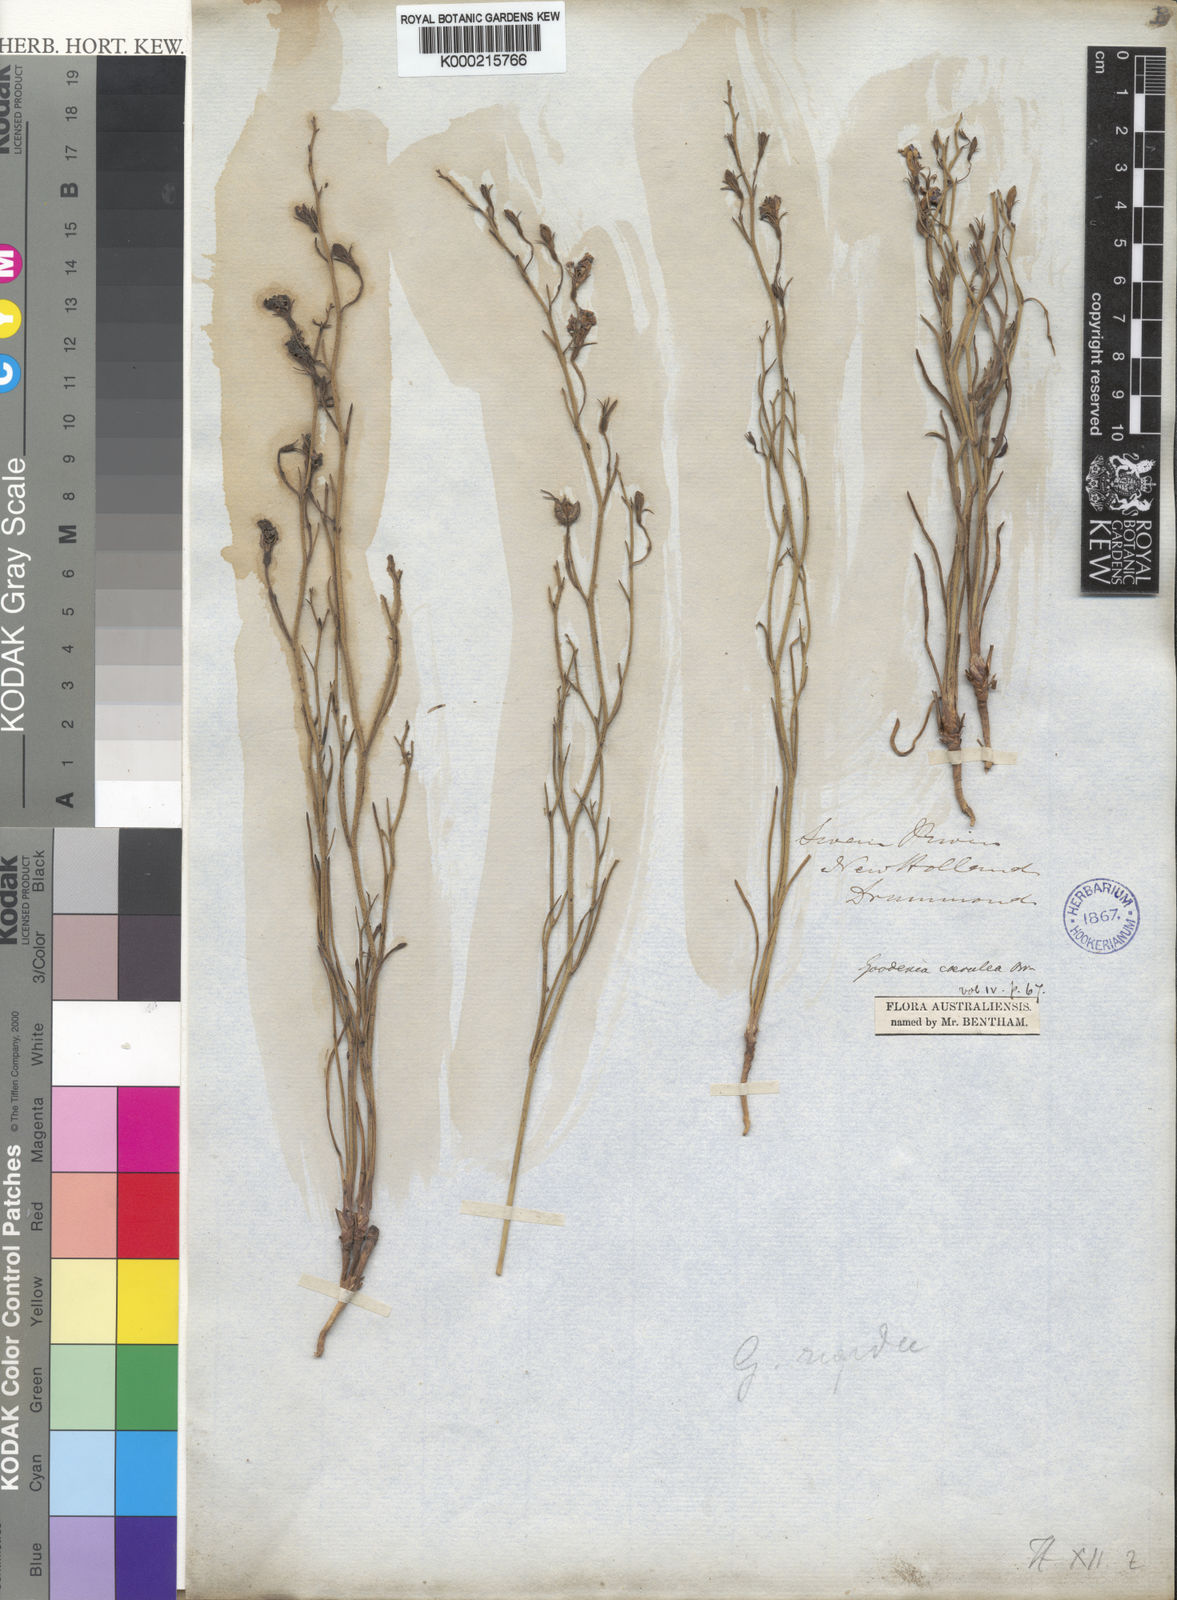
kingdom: Plantae
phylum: Tracheophyta
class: Magnoliopsida
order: Asterales
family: Goodeniaceae
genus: Goodenia
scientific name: Goodenia caerulea
